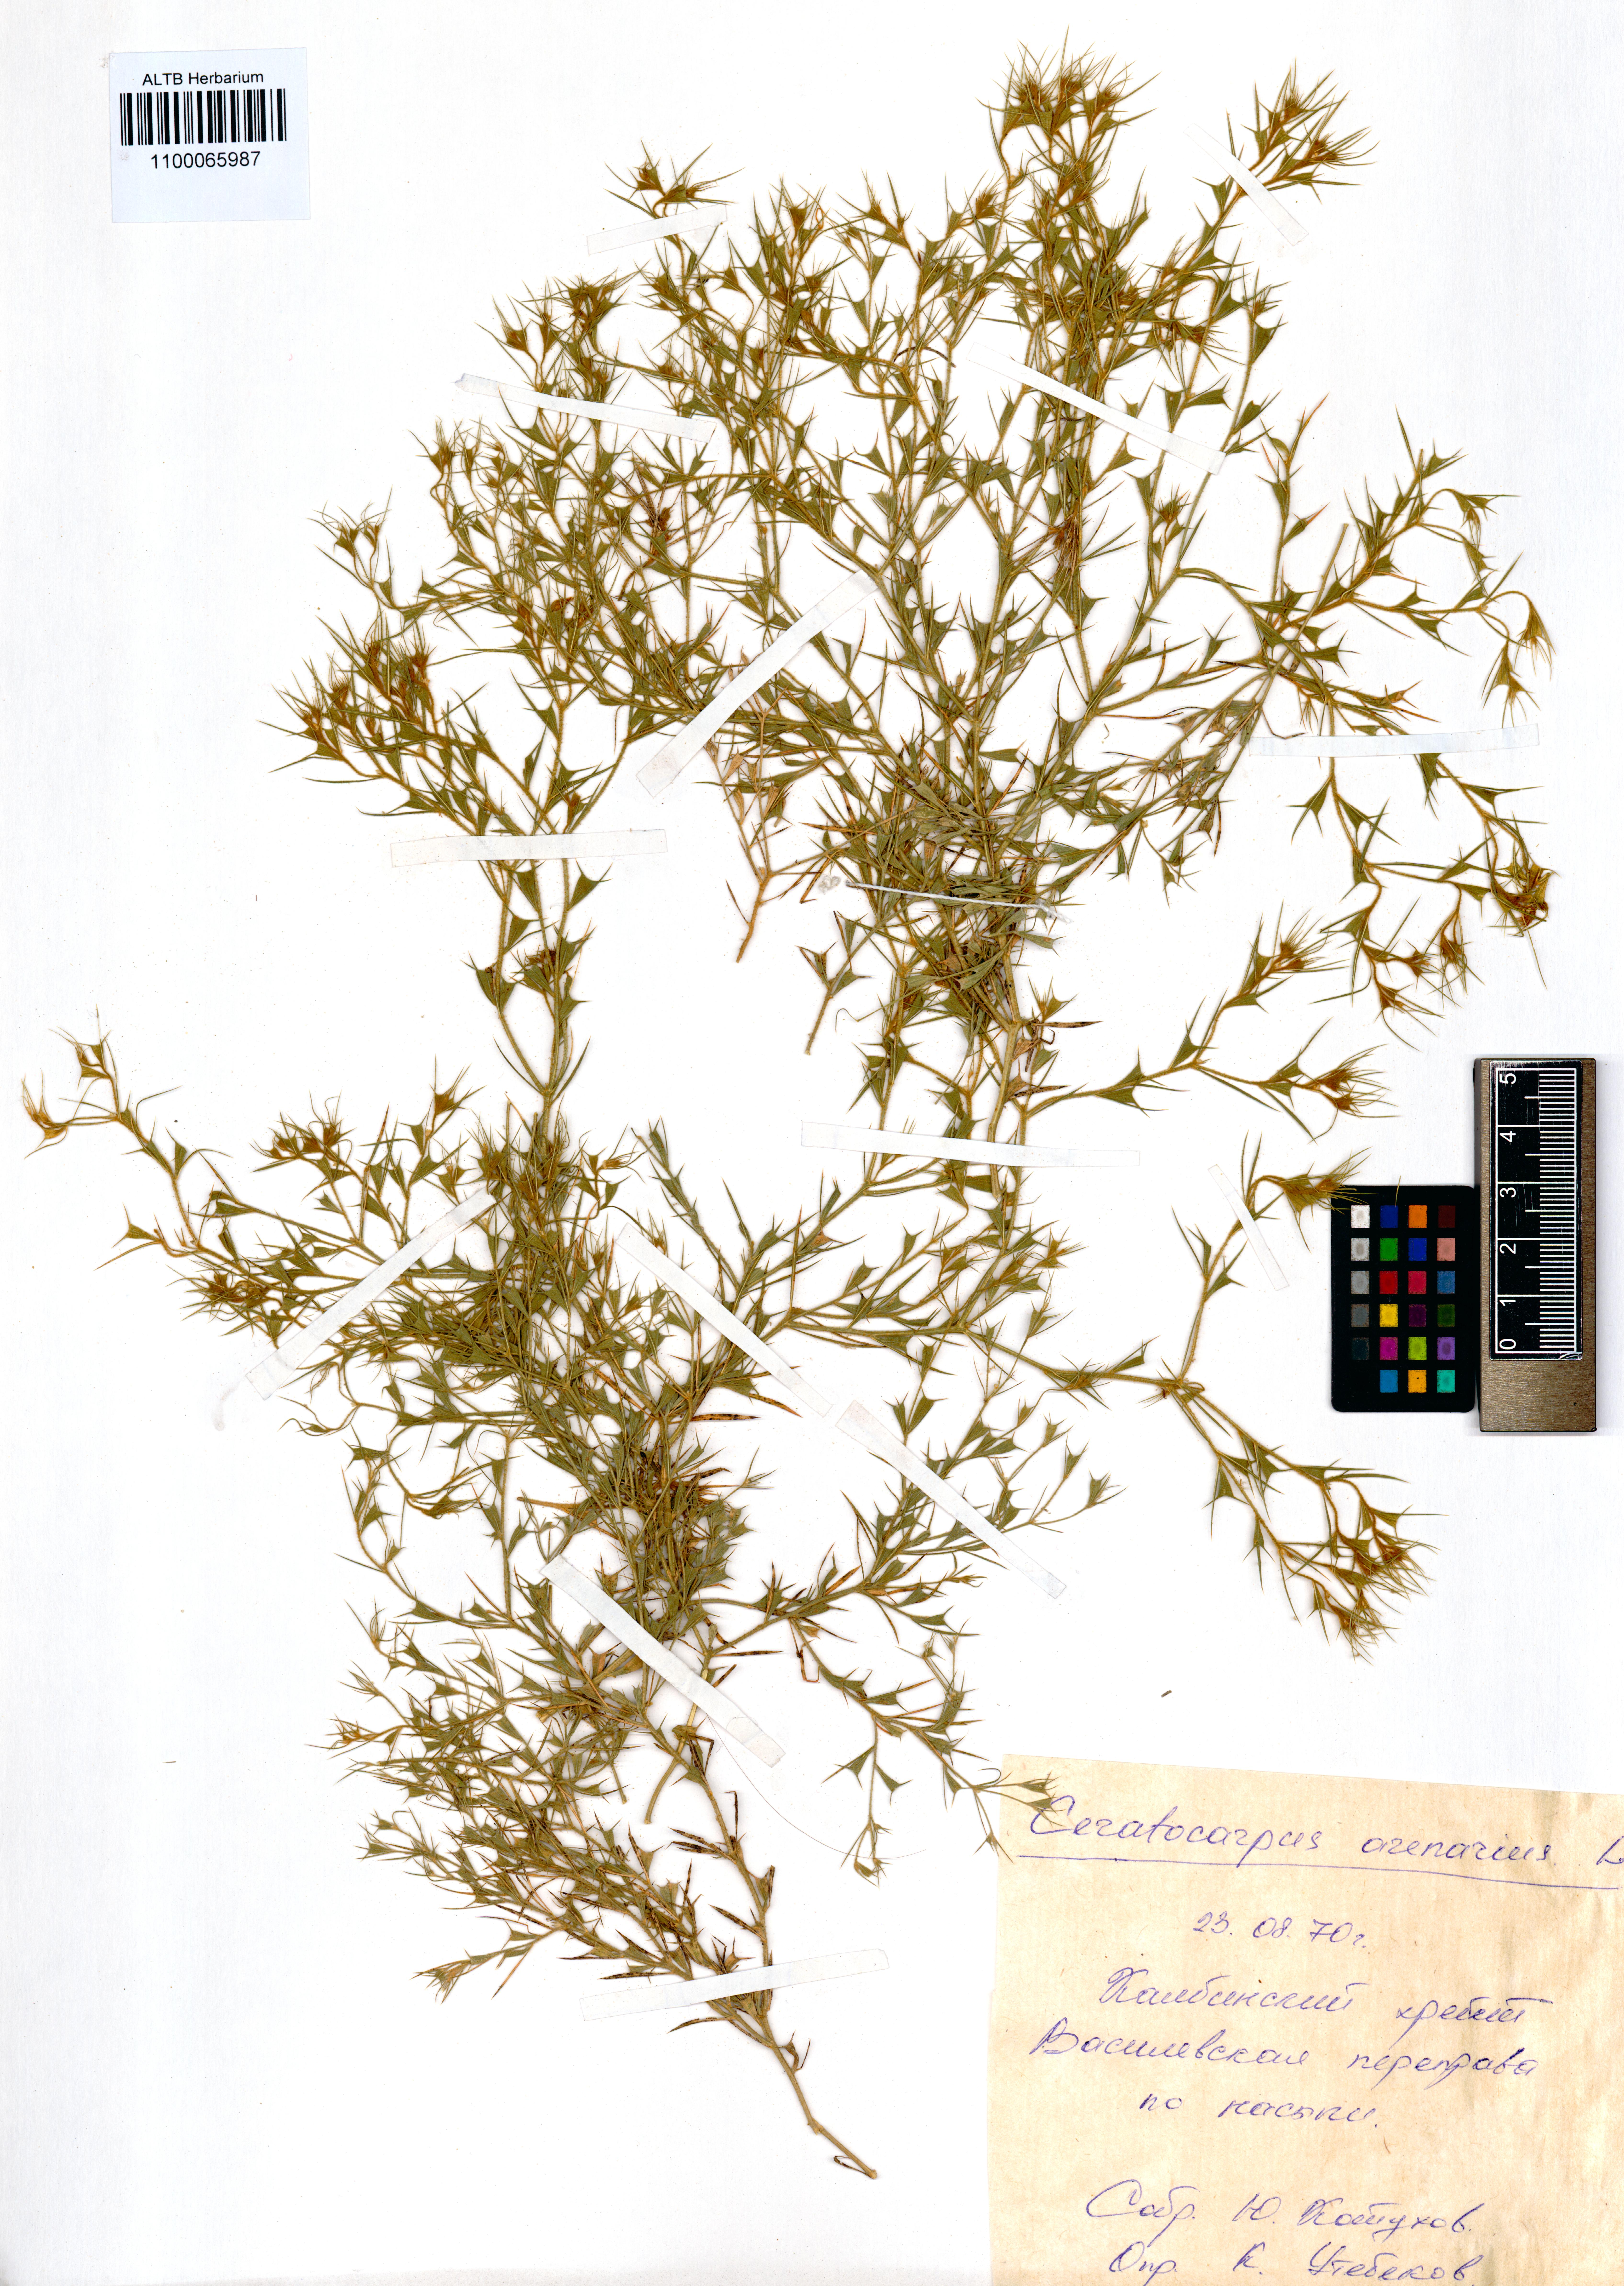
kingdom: Plantae
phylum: Tracheophyta
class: Magnoliopsida
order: Caryophyllales
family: Amaranthaceae
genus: Ceratocarpus
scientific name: Ceratocarpus arenarius
